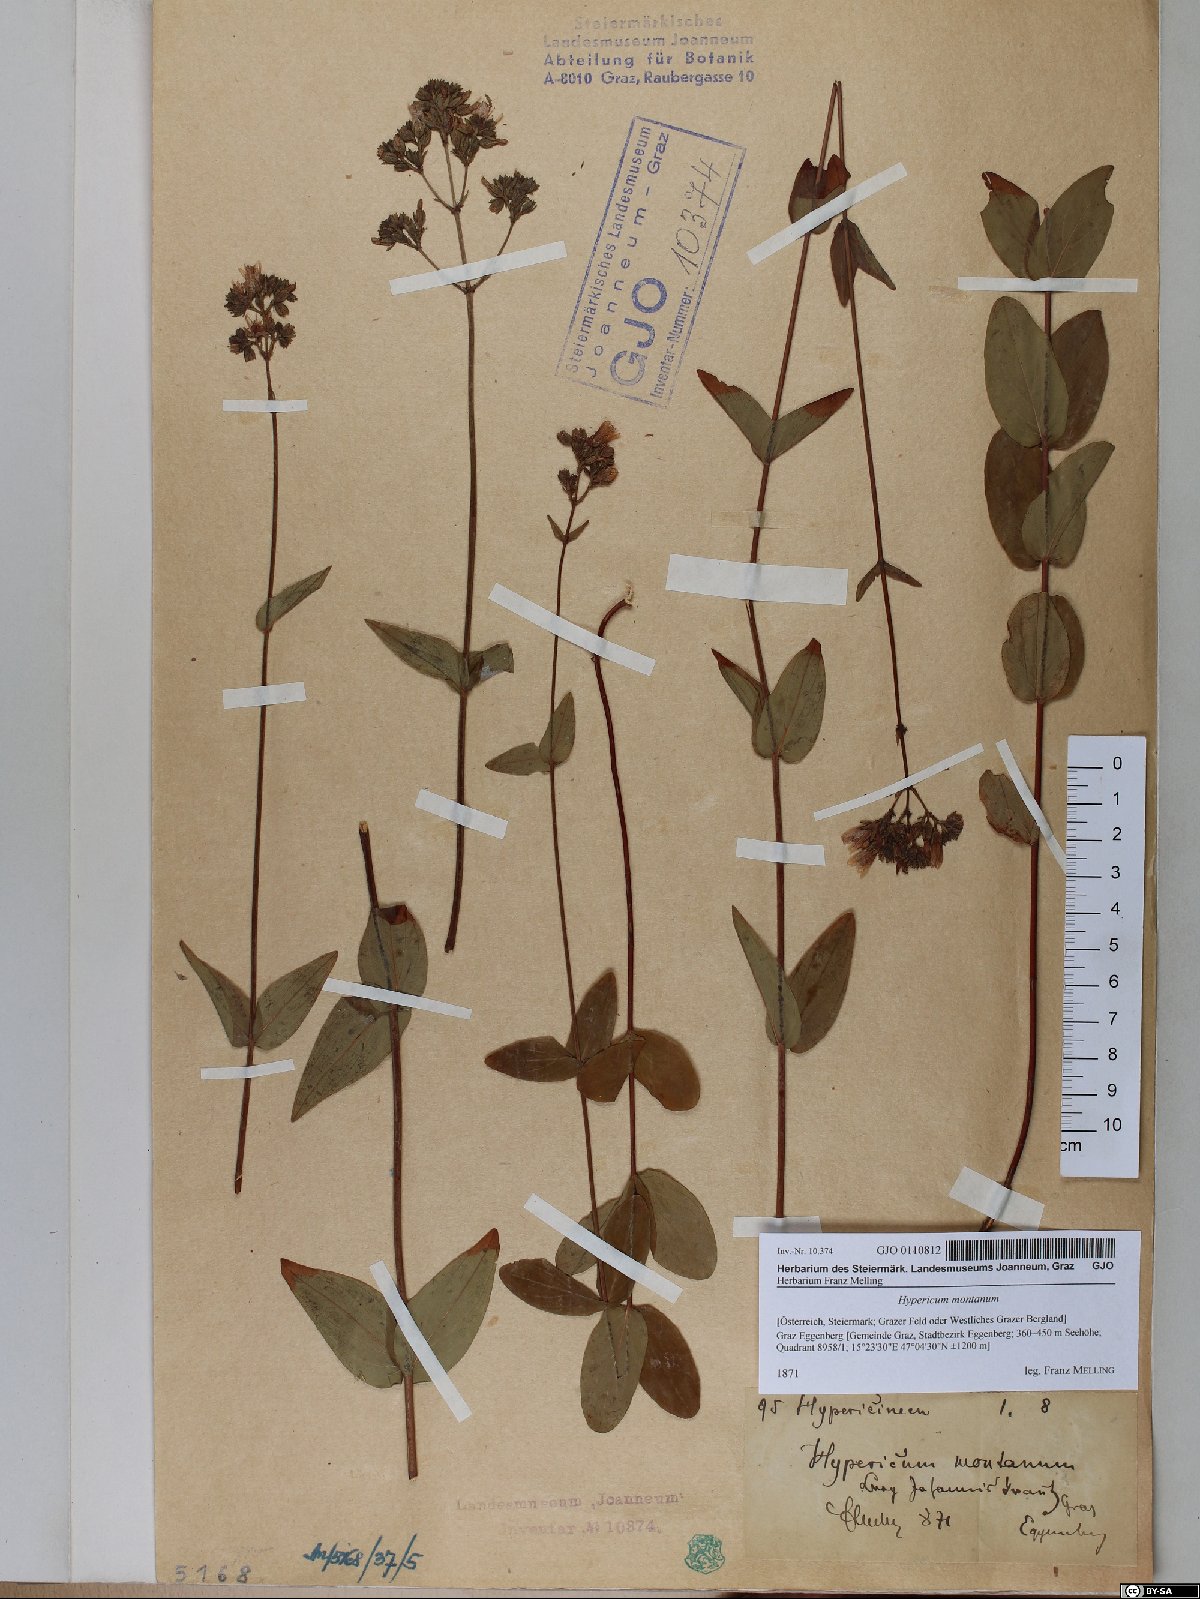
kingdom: Plantae
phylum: Tracheophyta
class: Magnoliopsida
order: Malpighiales
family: Hypericaceae
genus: Hypericum
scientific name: Hypericum montanum
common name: Pale st. john's-wort
